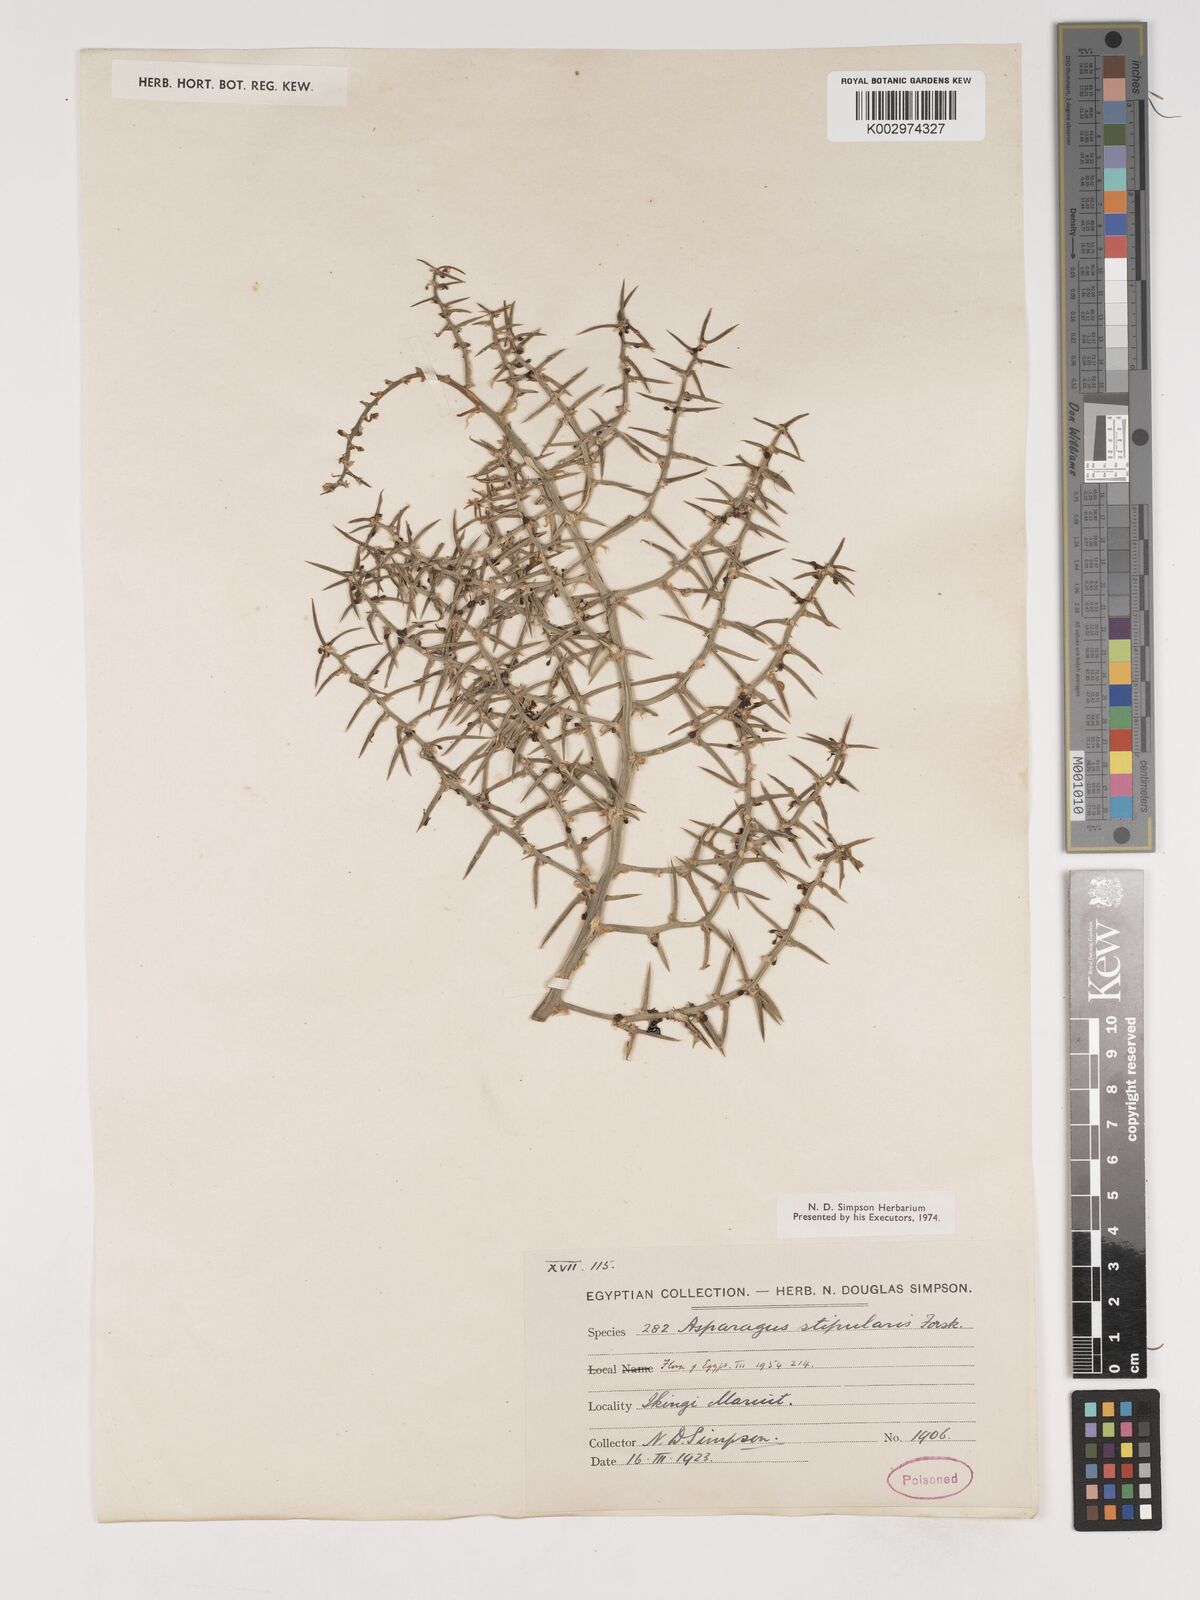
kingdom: Plantae
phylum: Tracheophyta
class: Liliopsida
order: Asparagales
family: Asparagaceae
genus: Asparagus
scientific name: Asparagus aphyllus
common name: Mediterranean asparagus
